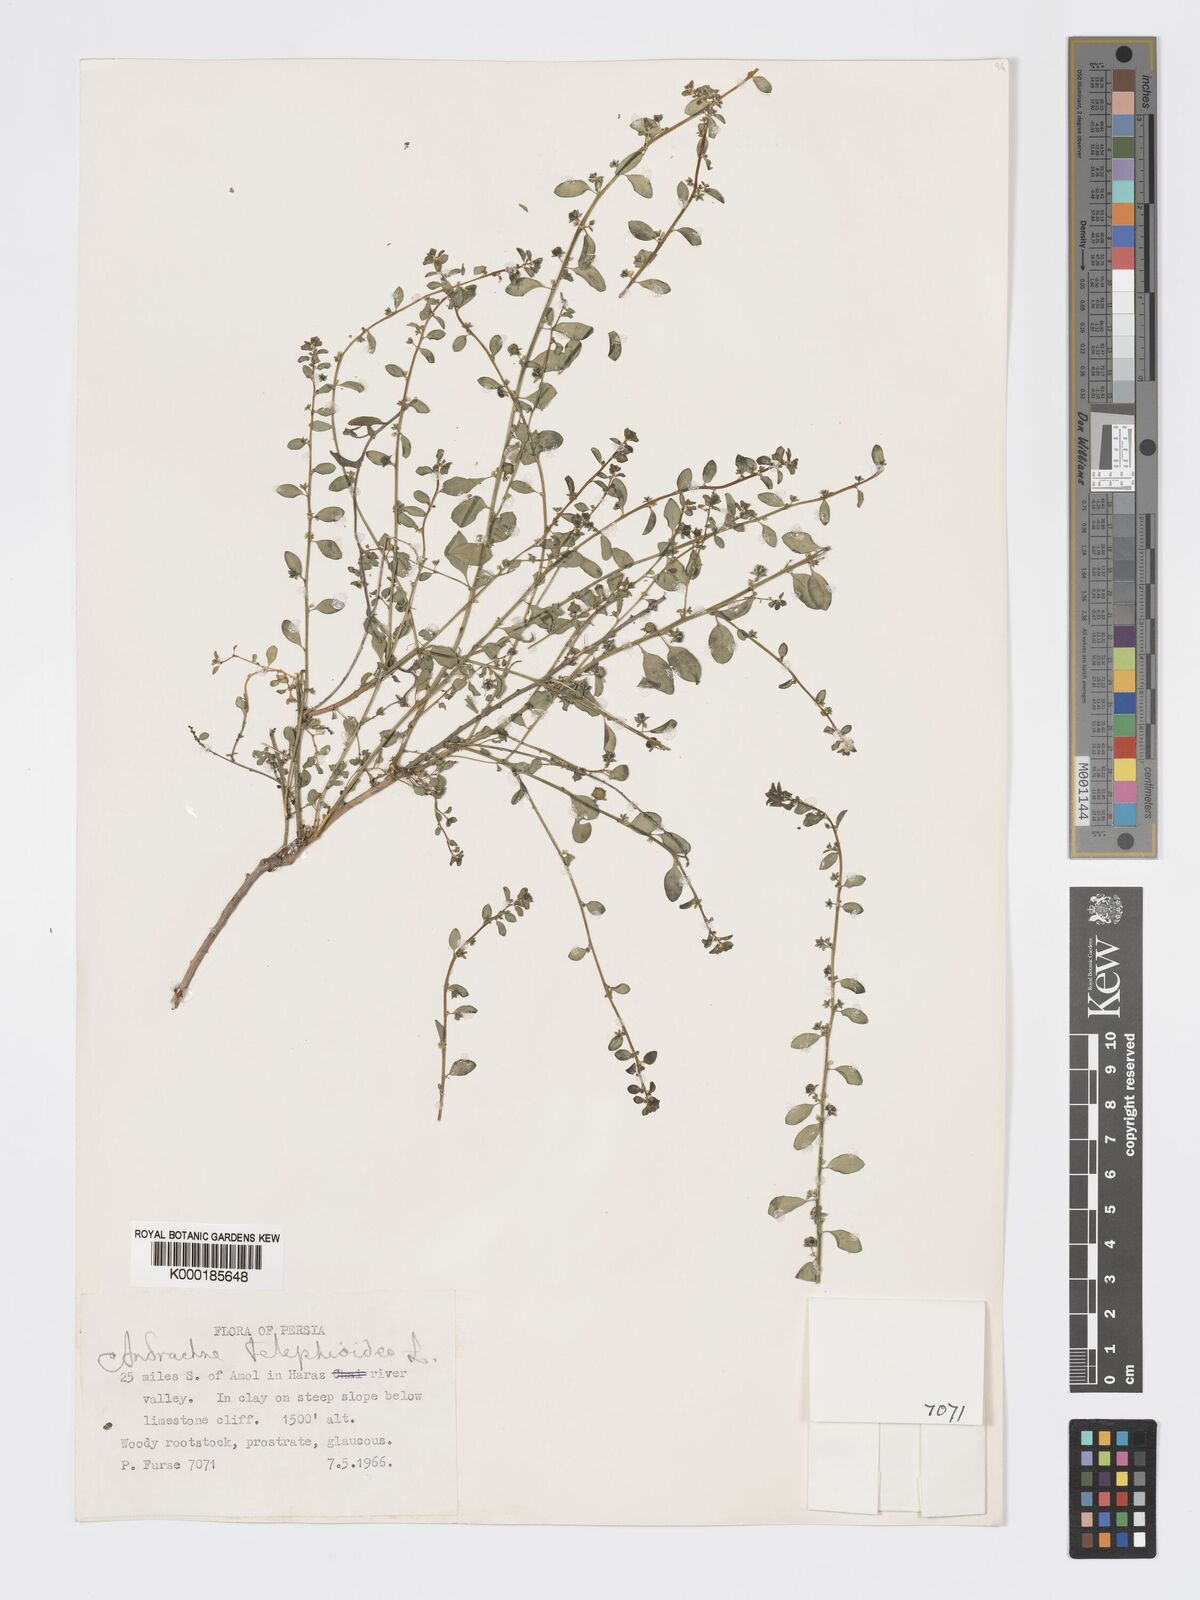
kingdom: Plantae
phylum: Tracheophyta
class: Magnoliopsida
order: Malpighiales
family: Phyllanthaceae
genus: Andrachne
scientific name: Andrachne telephioides
